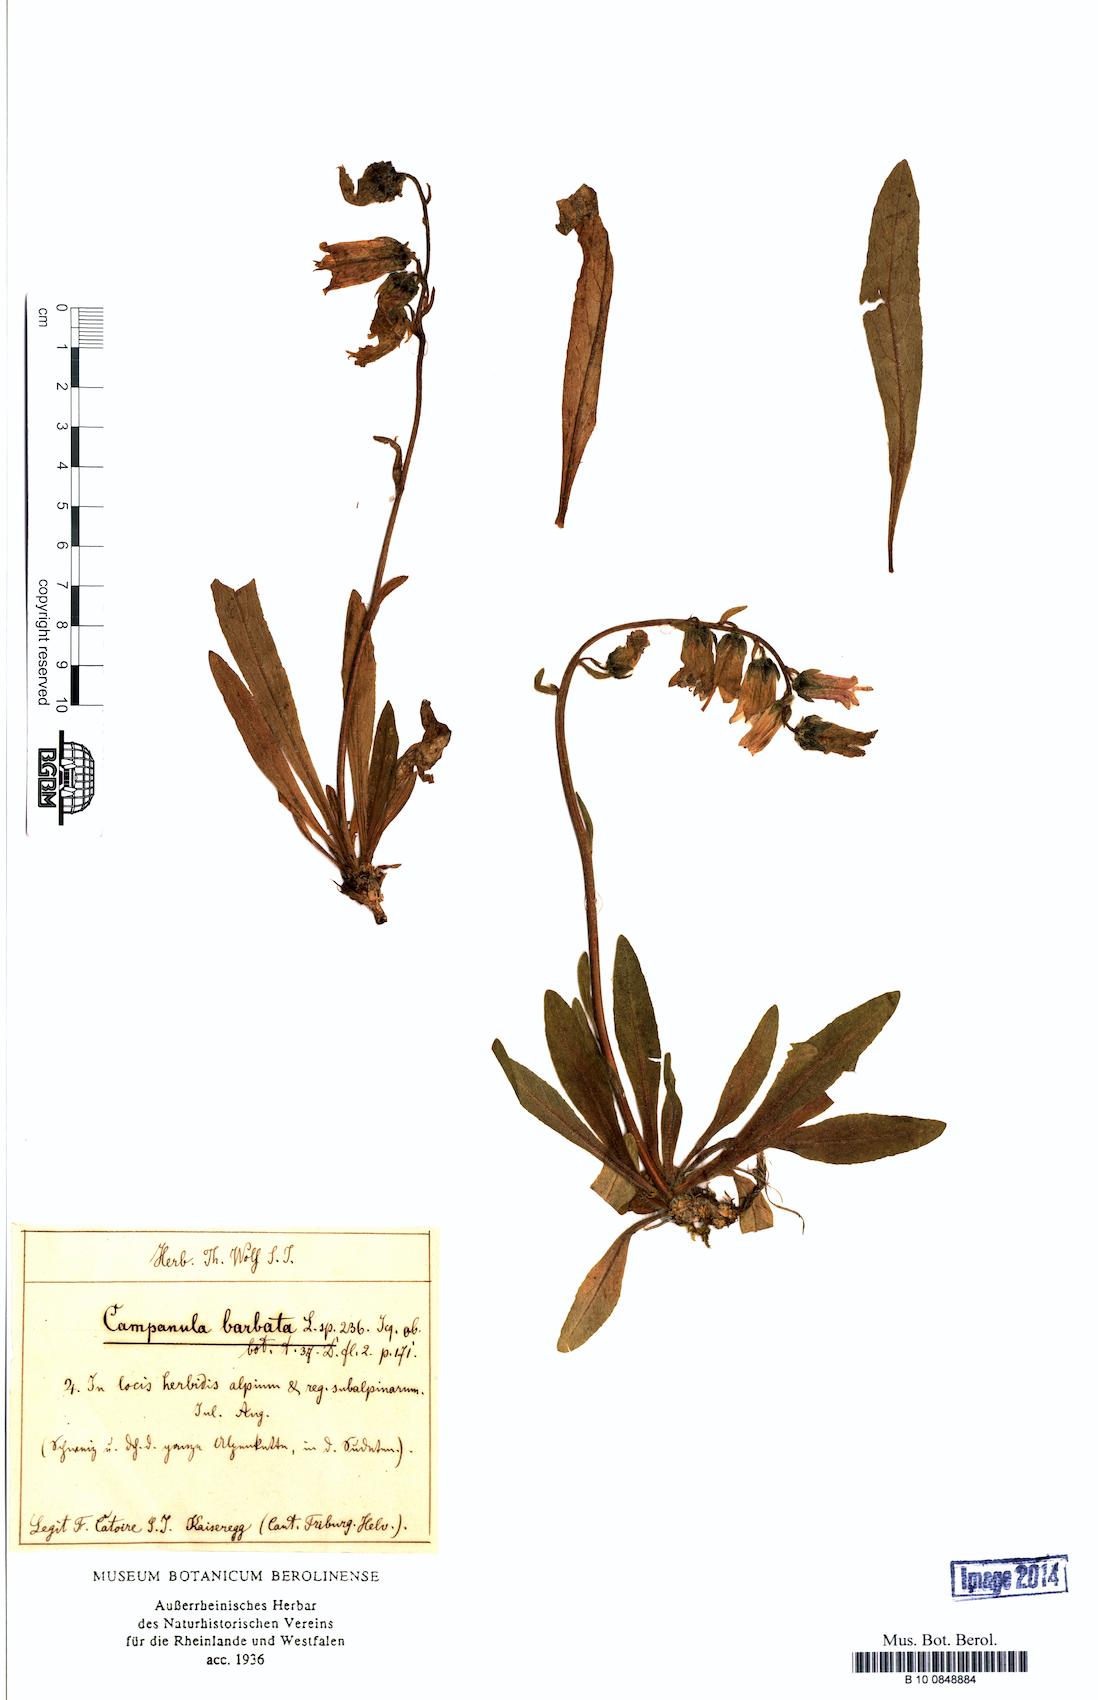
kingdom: Plantae
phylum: Tracheophyta
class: Magnoliopsida
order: Asterales
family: Campanulaceae
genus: Campanula
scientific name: Campanula barbata
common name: Bearded bellflower
